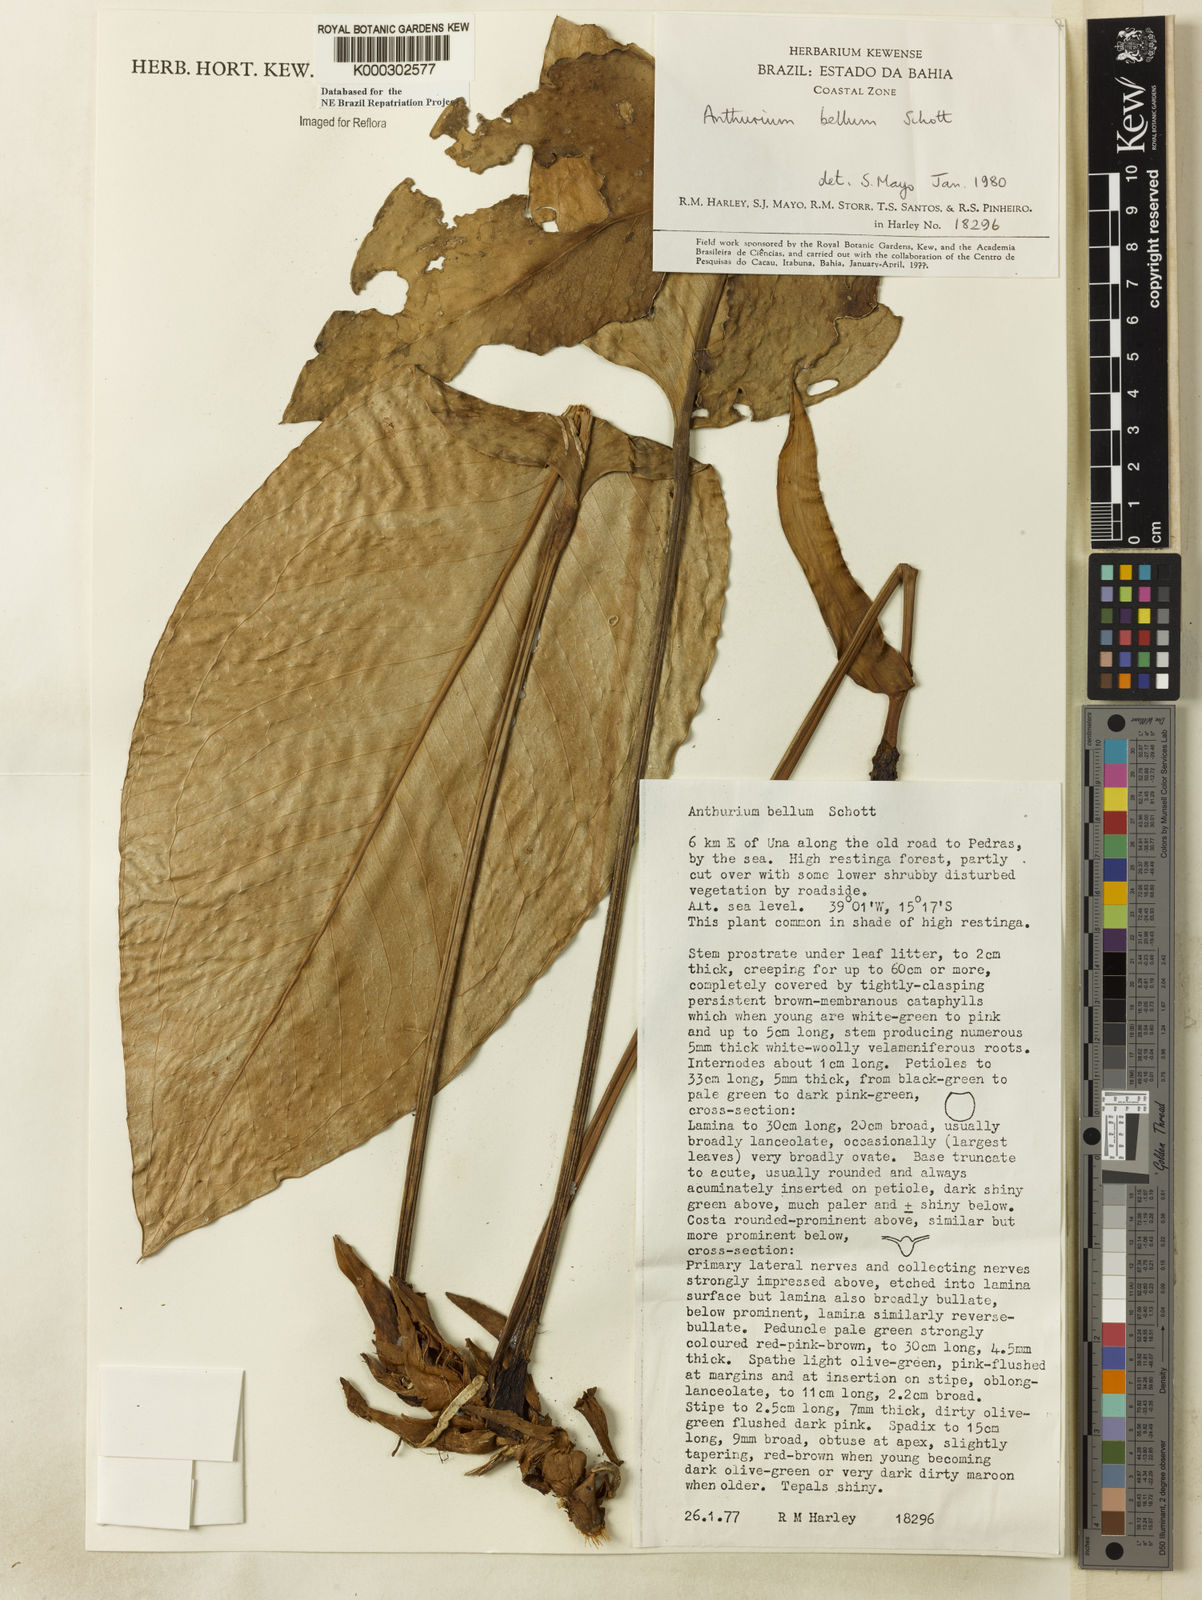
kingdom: Plantae
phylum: Tracheophyta
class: Liliopsida
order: Alismatales
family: Araceae
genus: Anthurium
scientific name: Anthurium bellum
